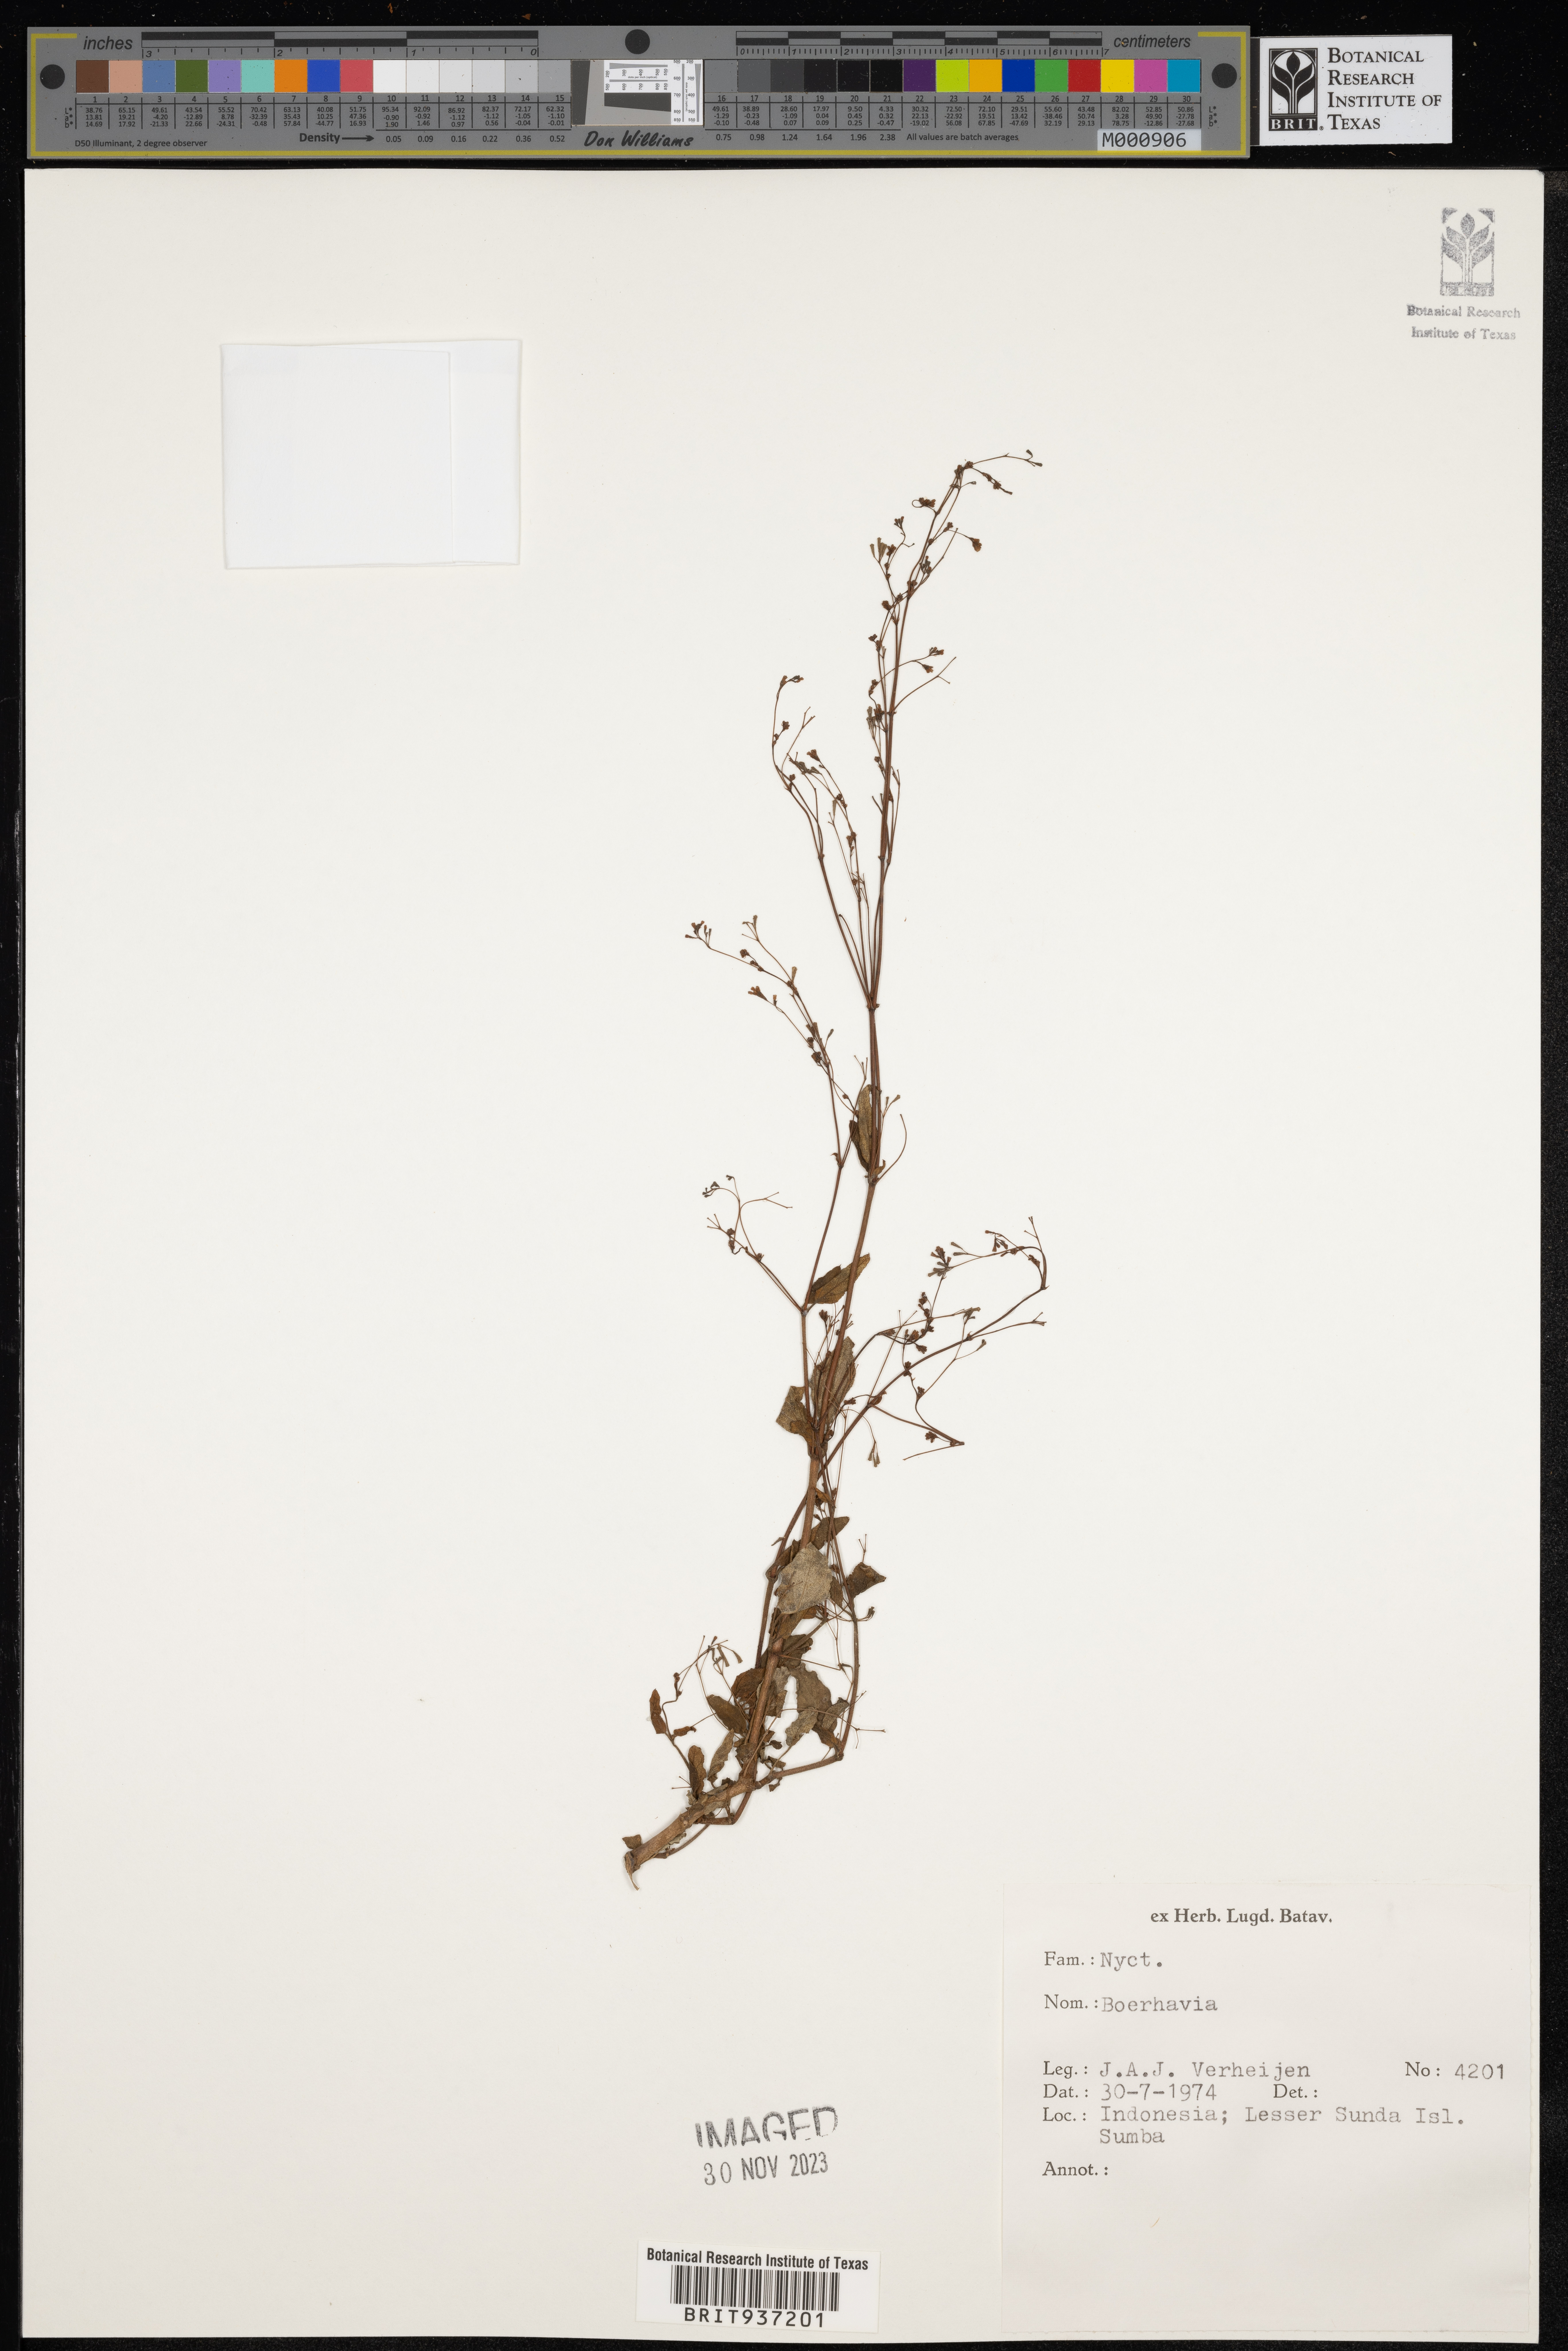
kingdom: Plantae
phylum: Tracheophyta
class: Magnoliopsida
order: Caryophyllales
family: Nyctaginaceae
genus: Boerhavia
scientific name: Boerhavia
